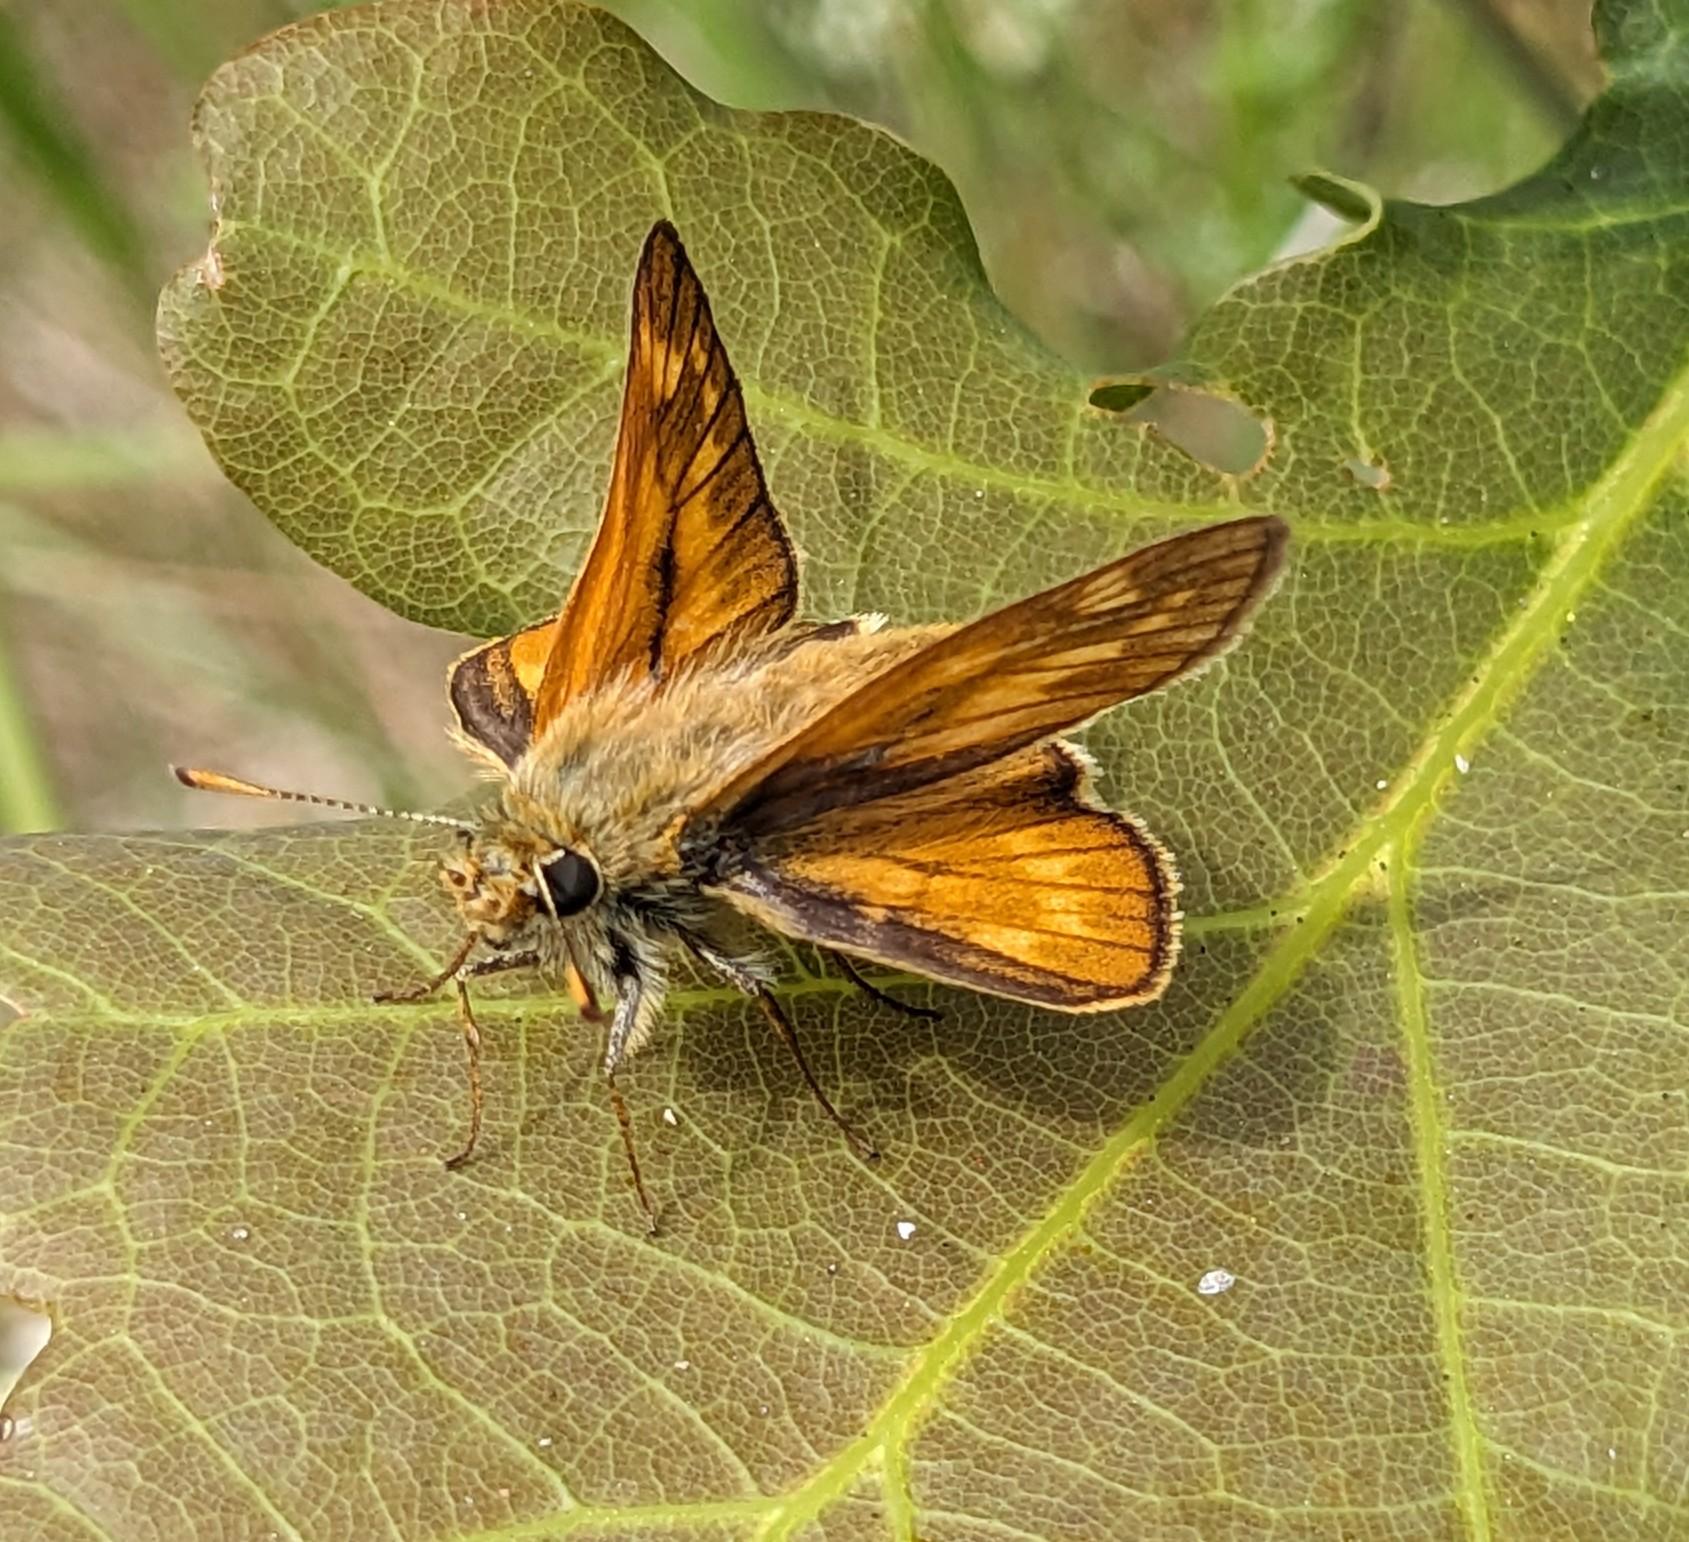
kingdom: Animalia
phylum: Arthropoda
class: Insecta
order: Lepidoptera
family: Hesperiidae
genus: Ochlodes
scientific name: Ochlodes venata
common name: Stor bredpande
